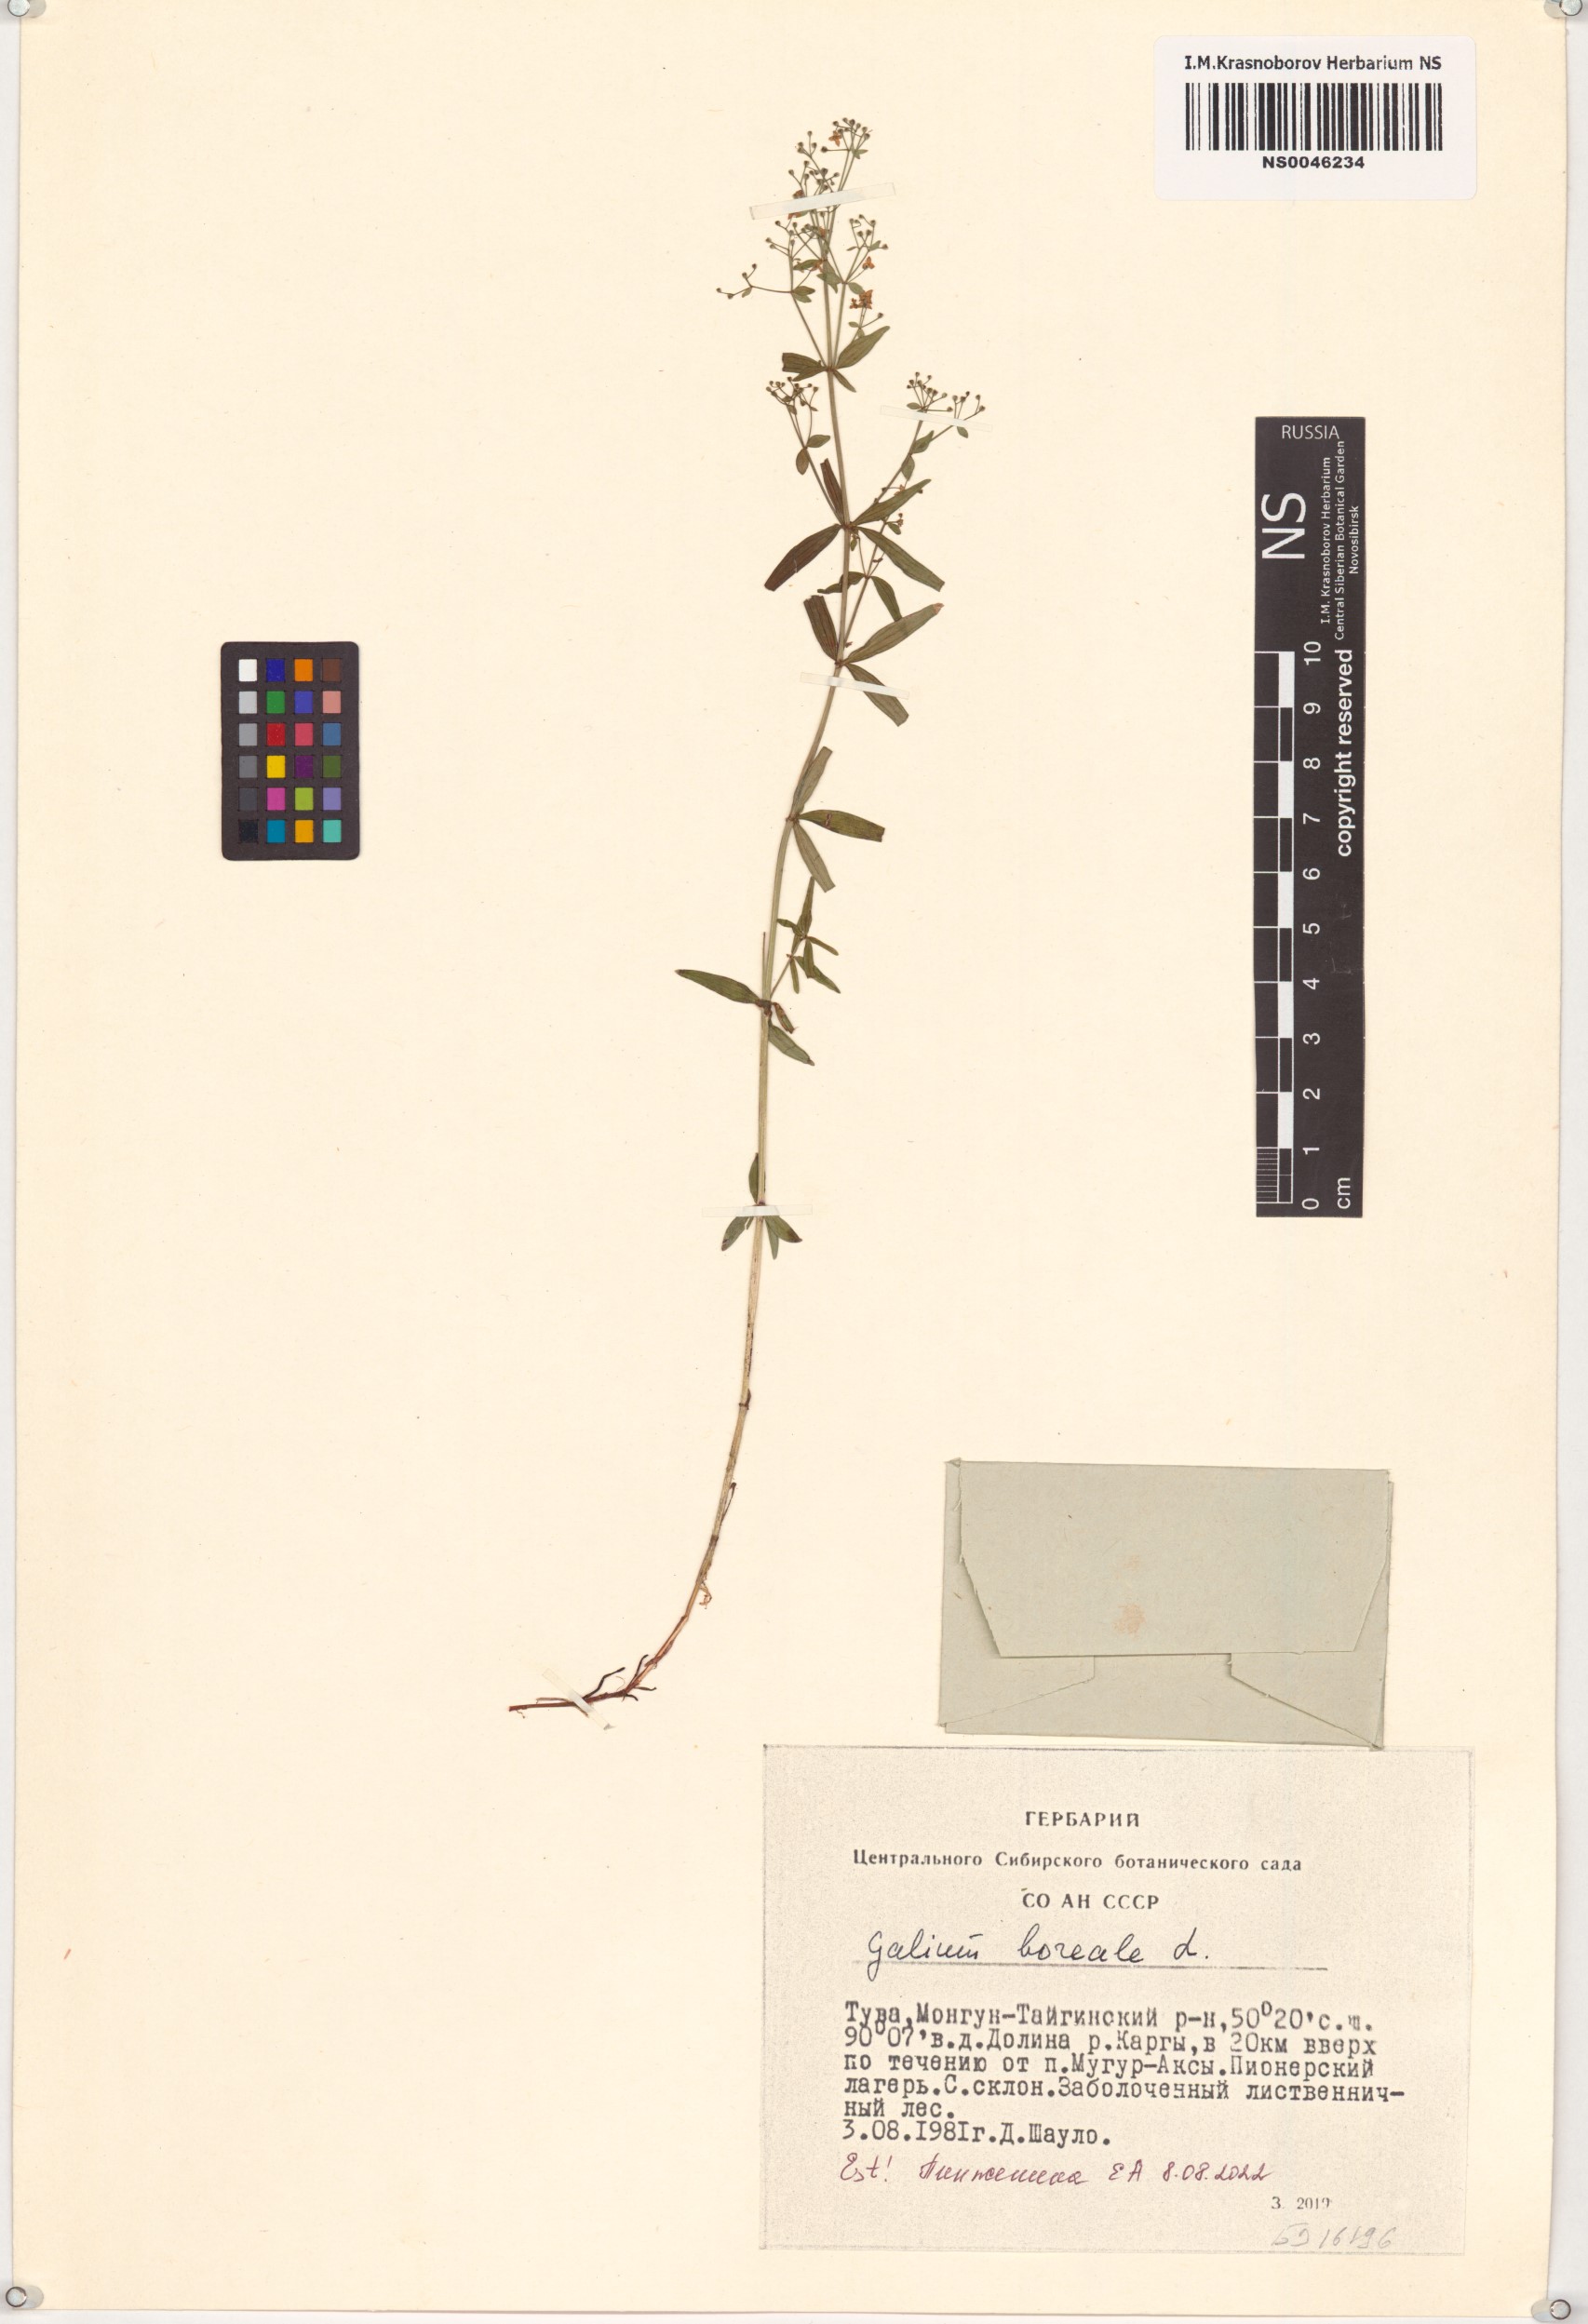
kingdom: Plantae
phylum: Tracheophyta
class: Magnoliopsida
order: Gentianales
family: Rubiaceae
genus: Galium
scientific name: Galium boreale
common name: Northern bedstraw
